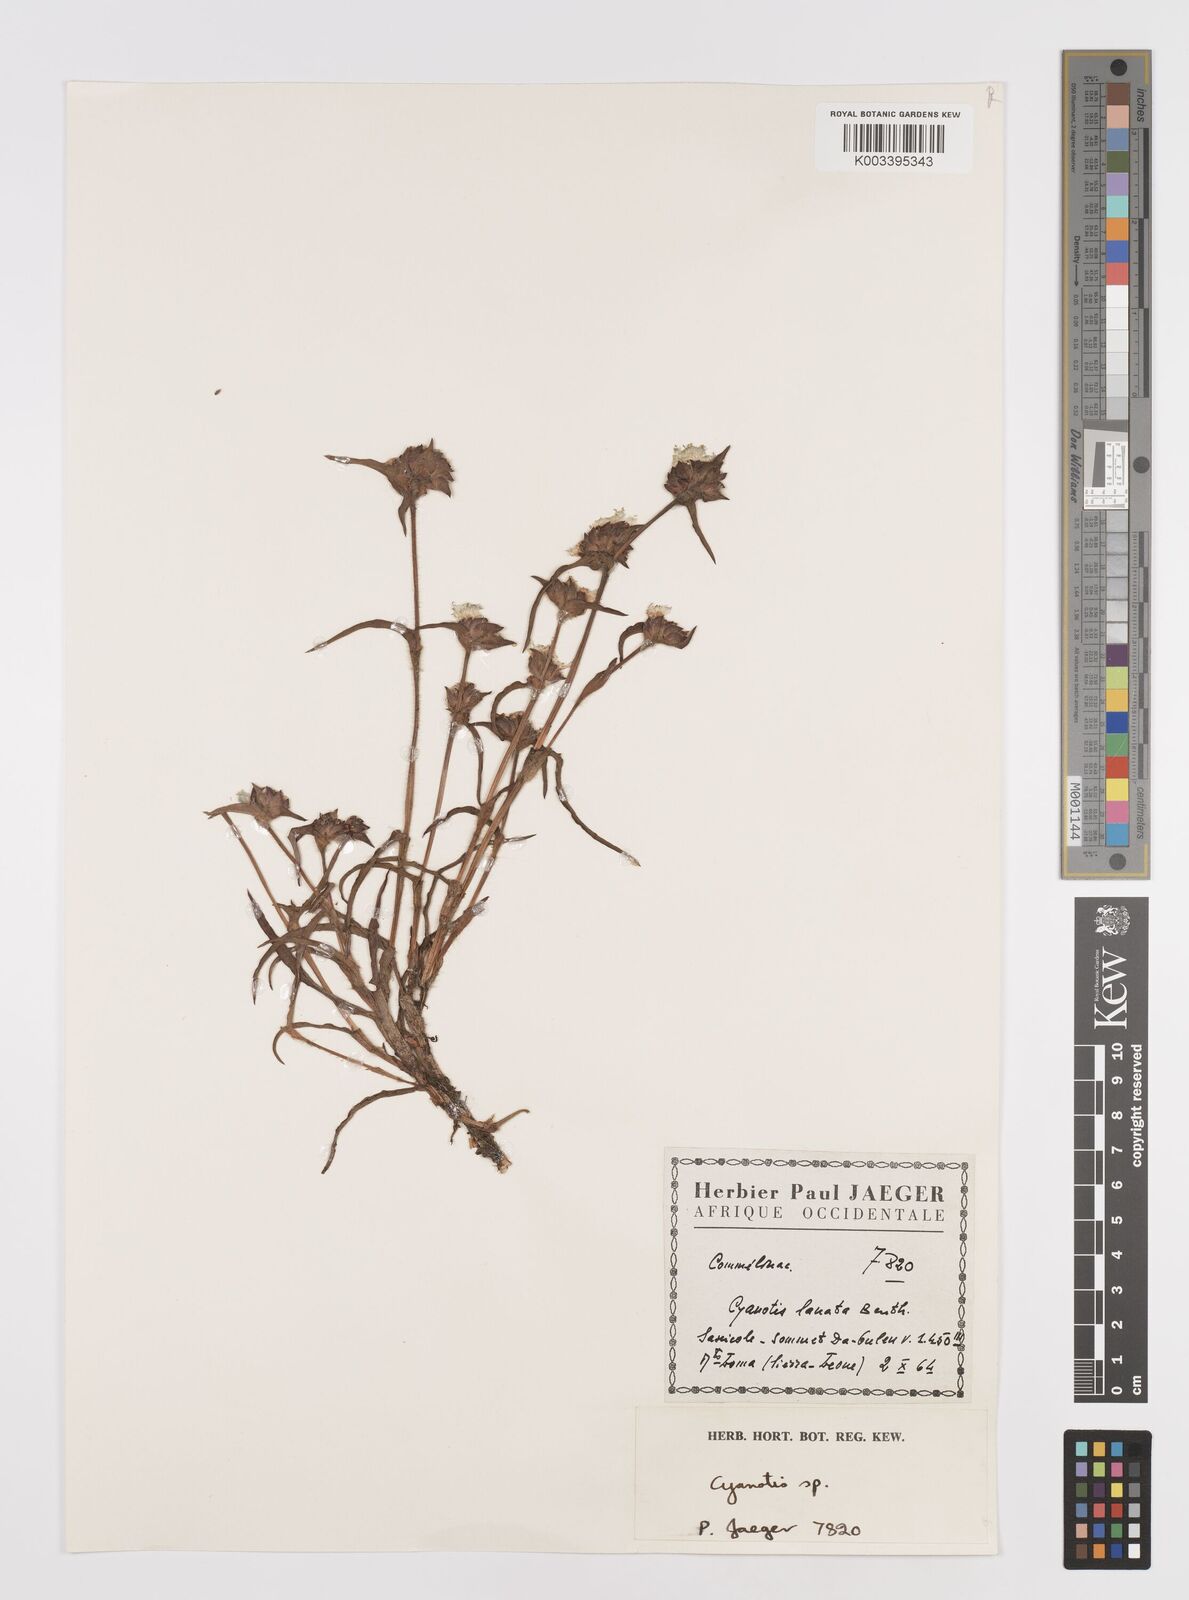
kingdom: Plantae
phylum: Tracheophyta
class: Liliopsida
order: Commelinales
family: Commelinaceae
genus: Cyanotis
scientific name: Cyanotis
